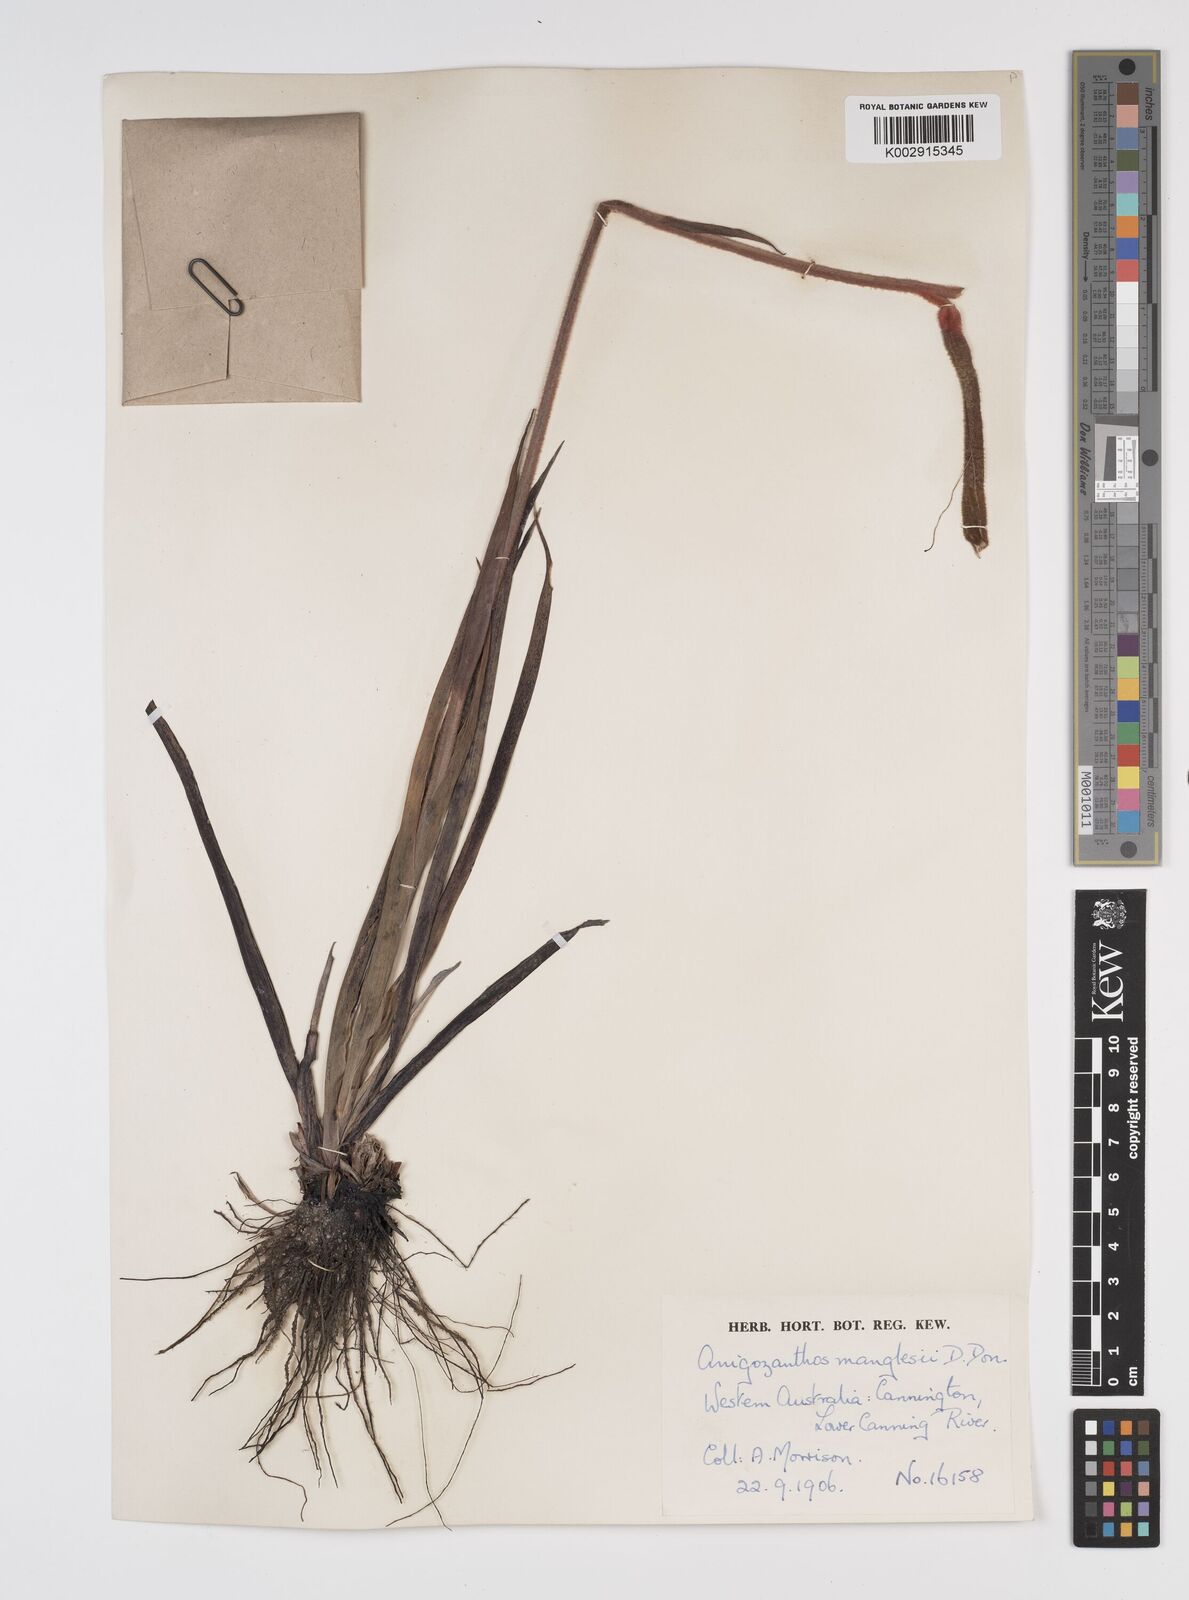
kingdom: Plantae
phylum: Tracheophyta
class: Liliopsida
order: Commelinales
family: Haemodoraceae
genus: Anigozanthos
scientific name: Anigozanthos manglesii
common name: Mangles's kangaroo-paw
